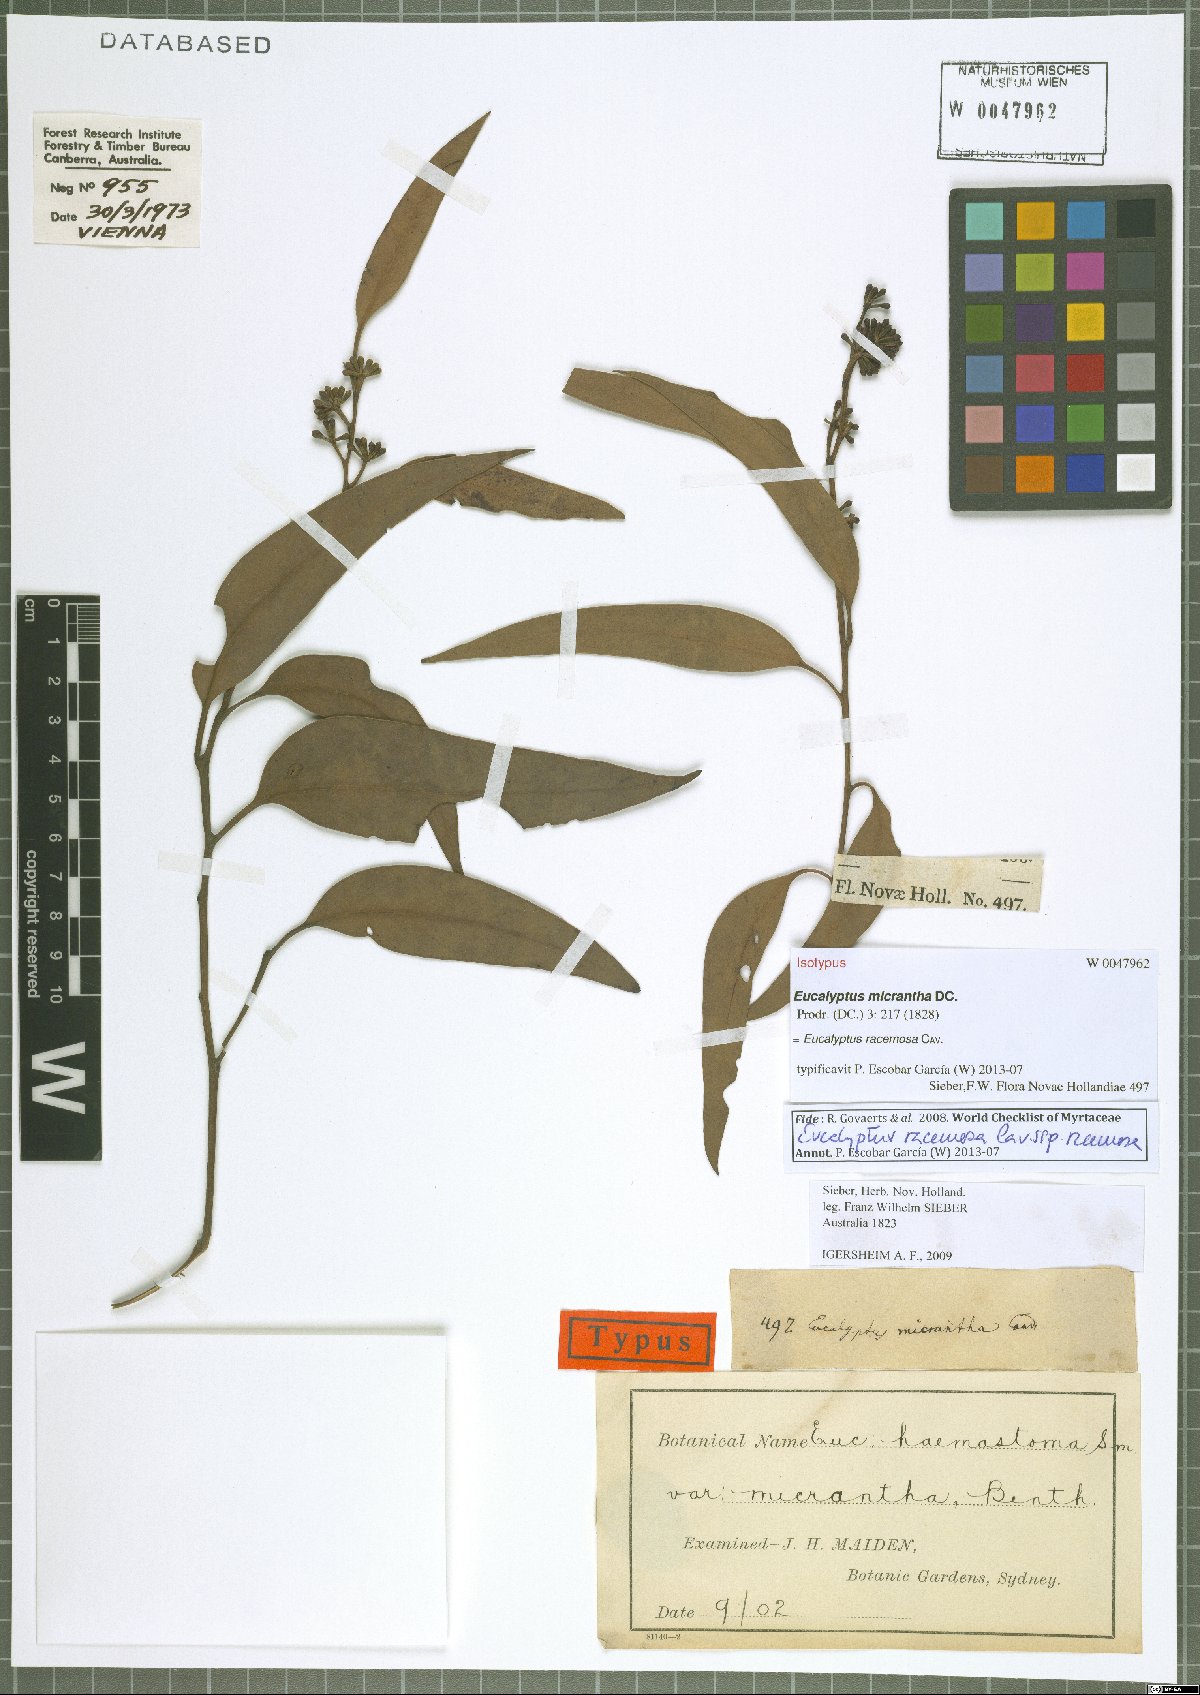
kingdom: Plantae
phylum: Tracheophyta
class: Magnoliopsida
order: Myrtales
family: Myrtaceae
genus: Eucalyptus
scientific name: Eucalyptus racemosa
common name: Scribbly gum
